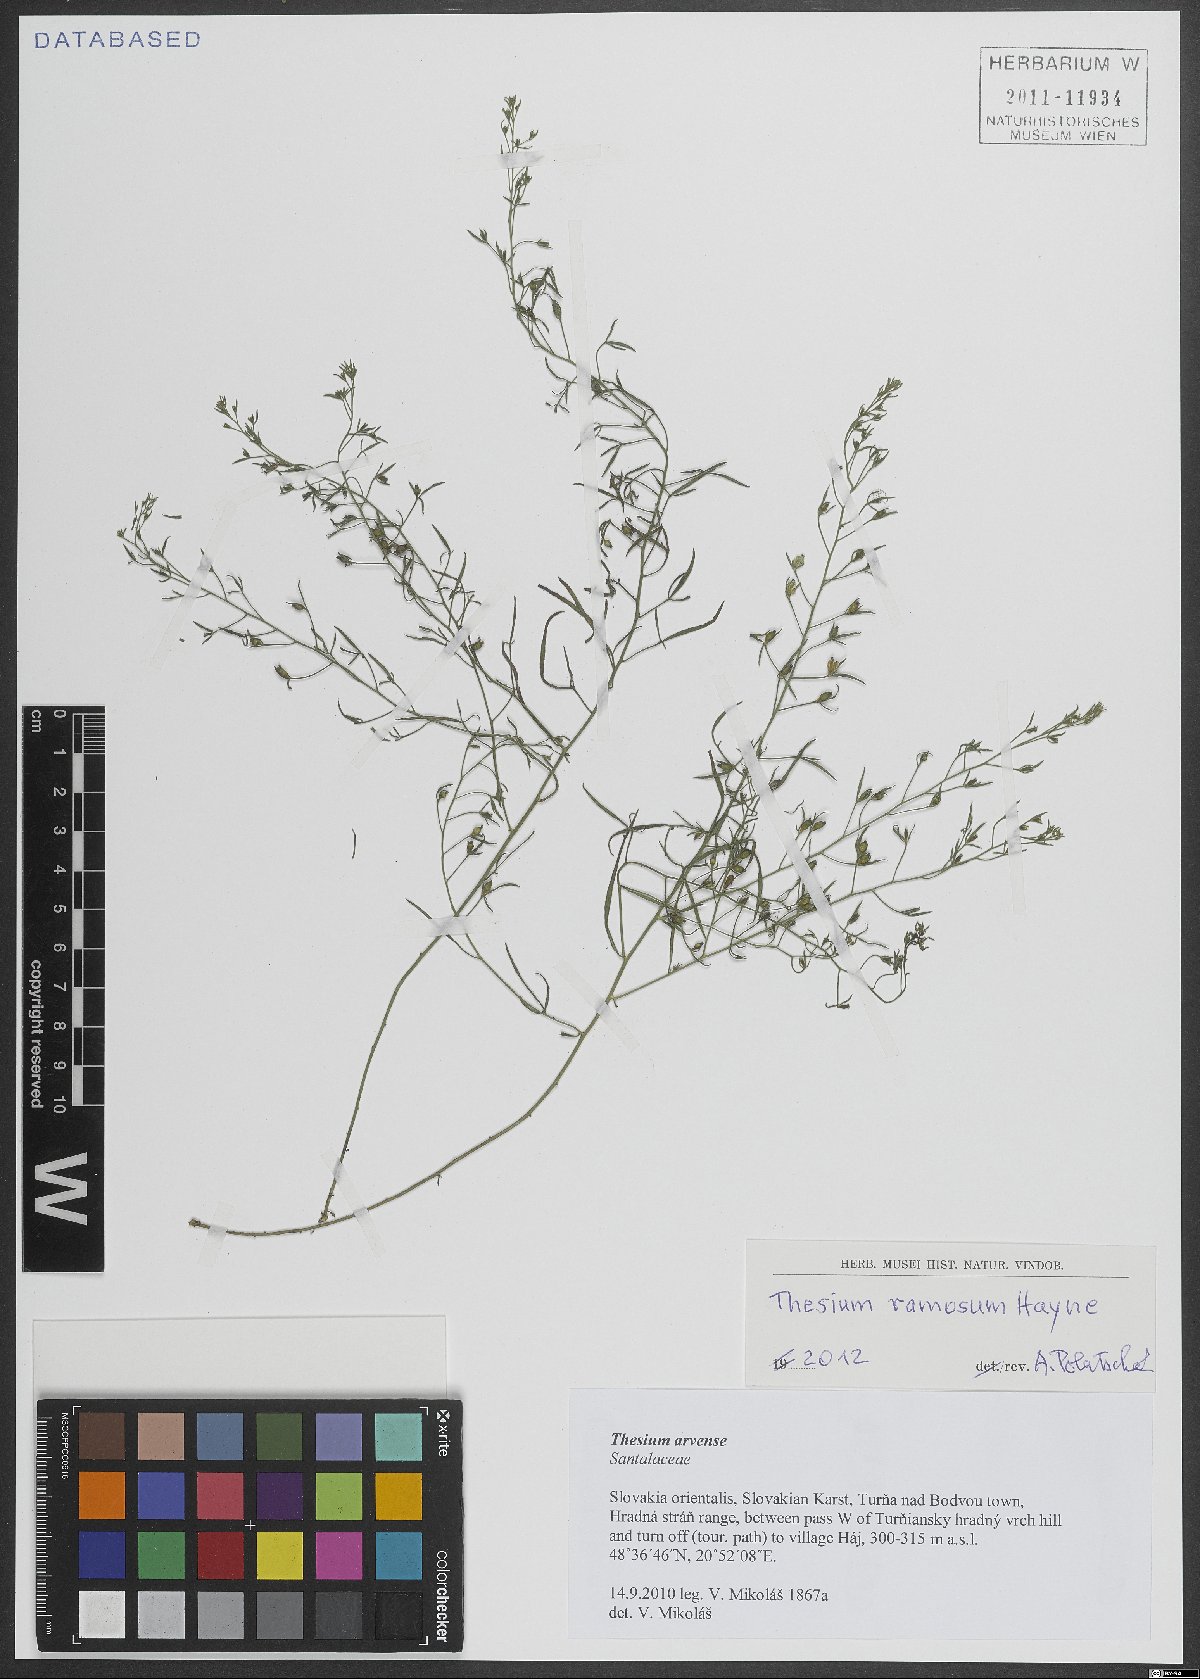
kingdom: Plantae
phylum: Tracheophyta
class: Magnoliopsida
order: Santalales
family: Thesiaceae
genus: Thesium
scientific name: Thesium ramosum
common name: Field thesium
